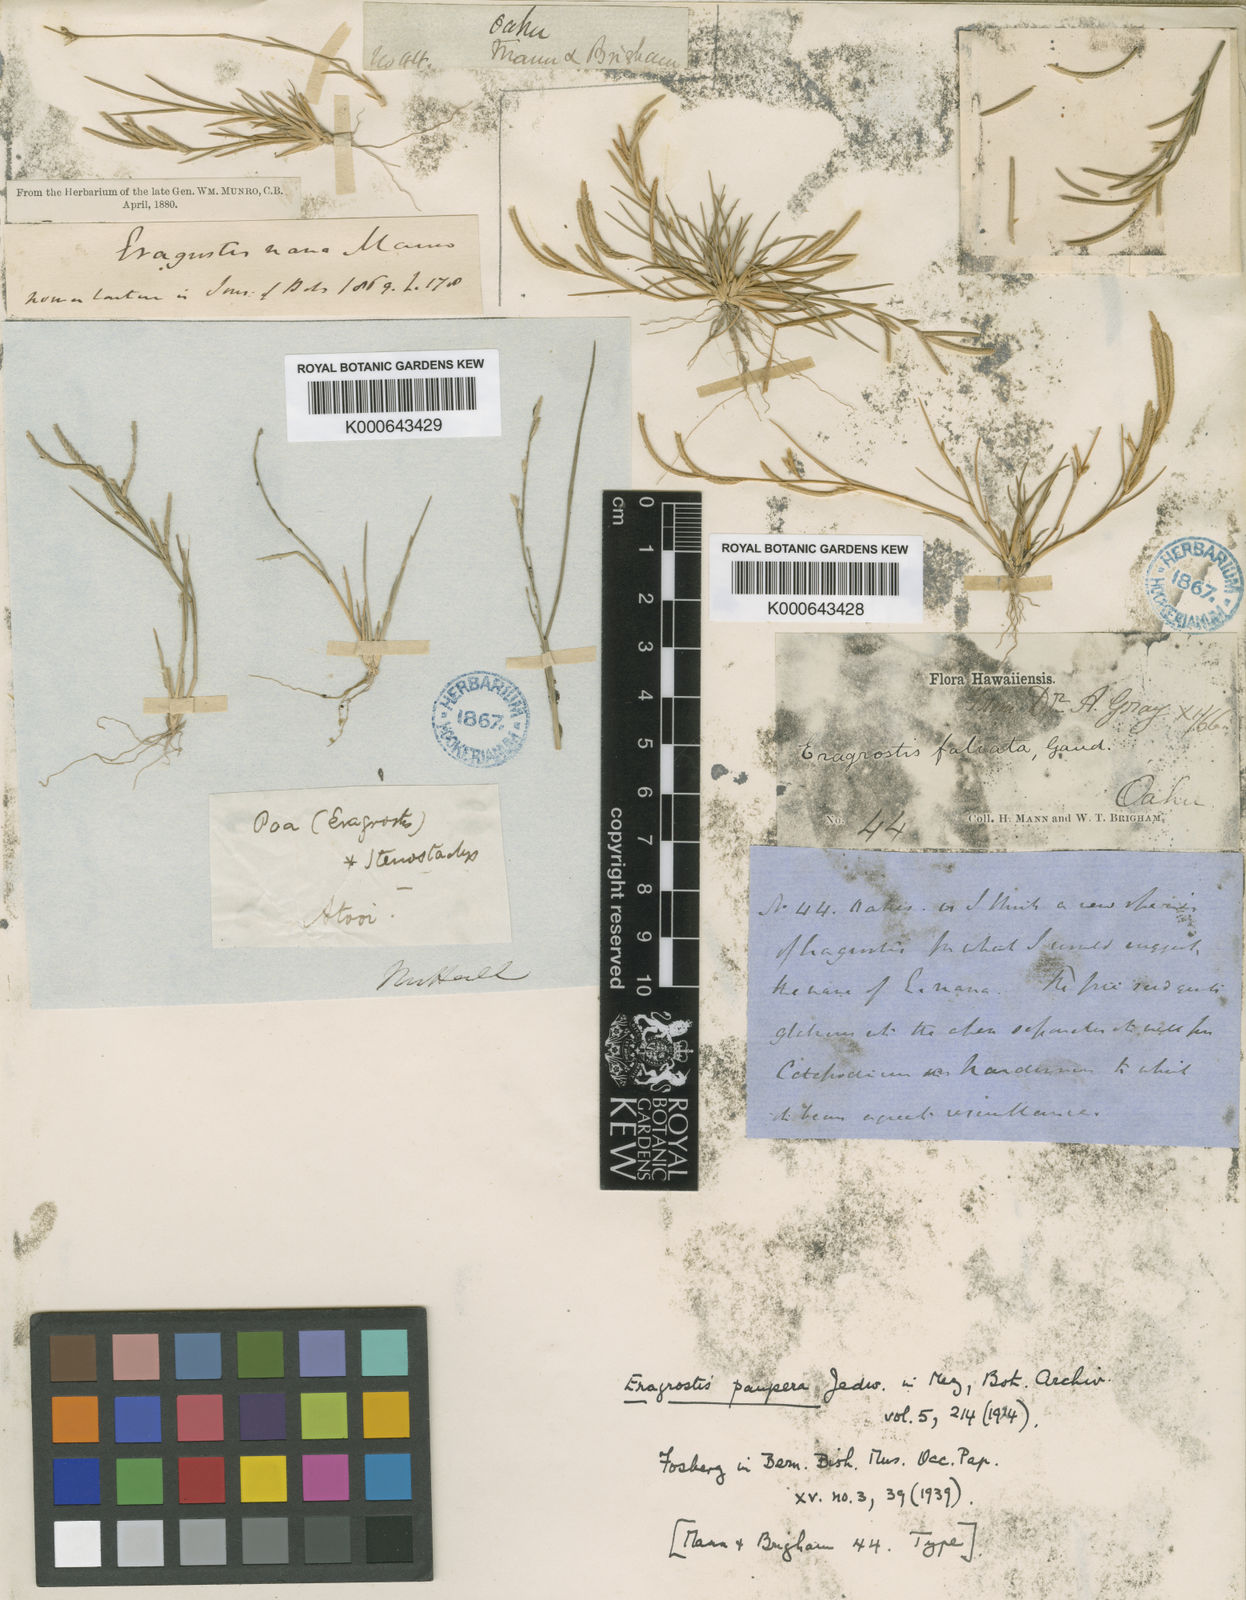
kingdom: Plantae
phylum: Tracheophyta
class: Liliopsida
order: Poales
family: Poaceae
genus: Eragrostis
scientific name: Eragrostis paupera
